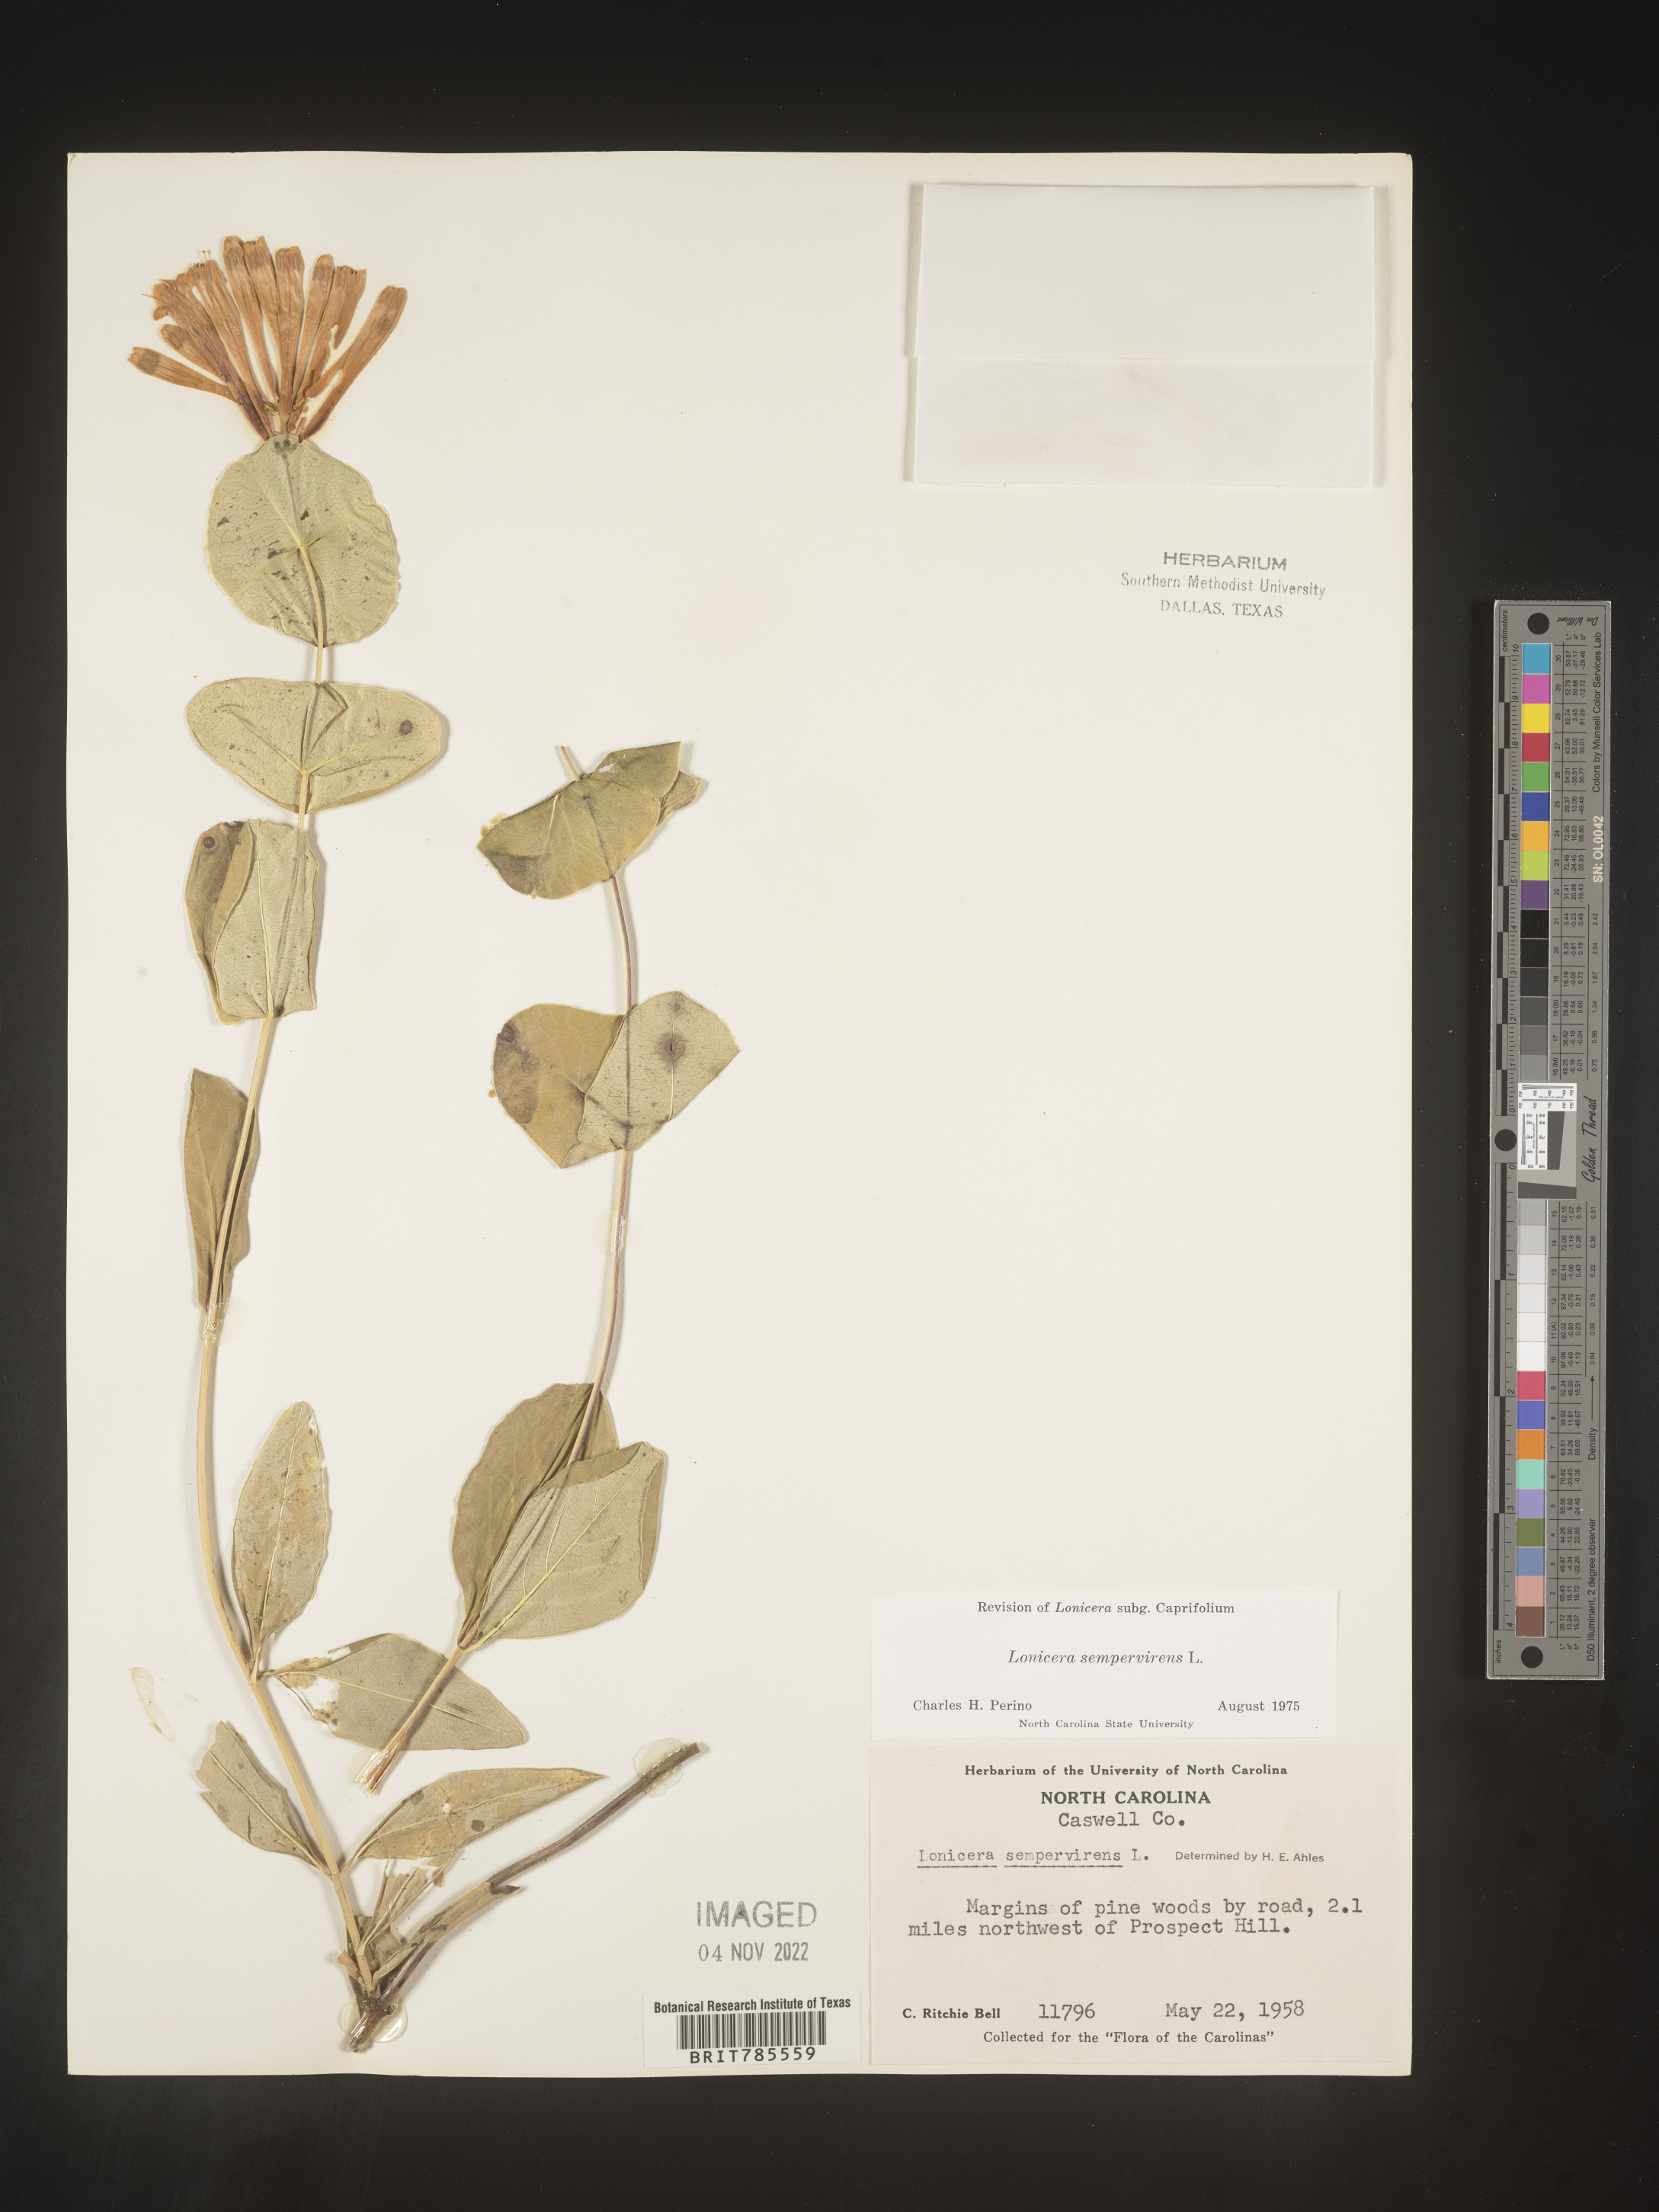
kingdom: Plantae
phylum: Tracheophyta
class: Magnoliopsida
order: Dipsacales
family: Caprifoliaceae
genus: Lonicera
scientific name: Lonicera sempervirens
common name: Coral honeysuckle
